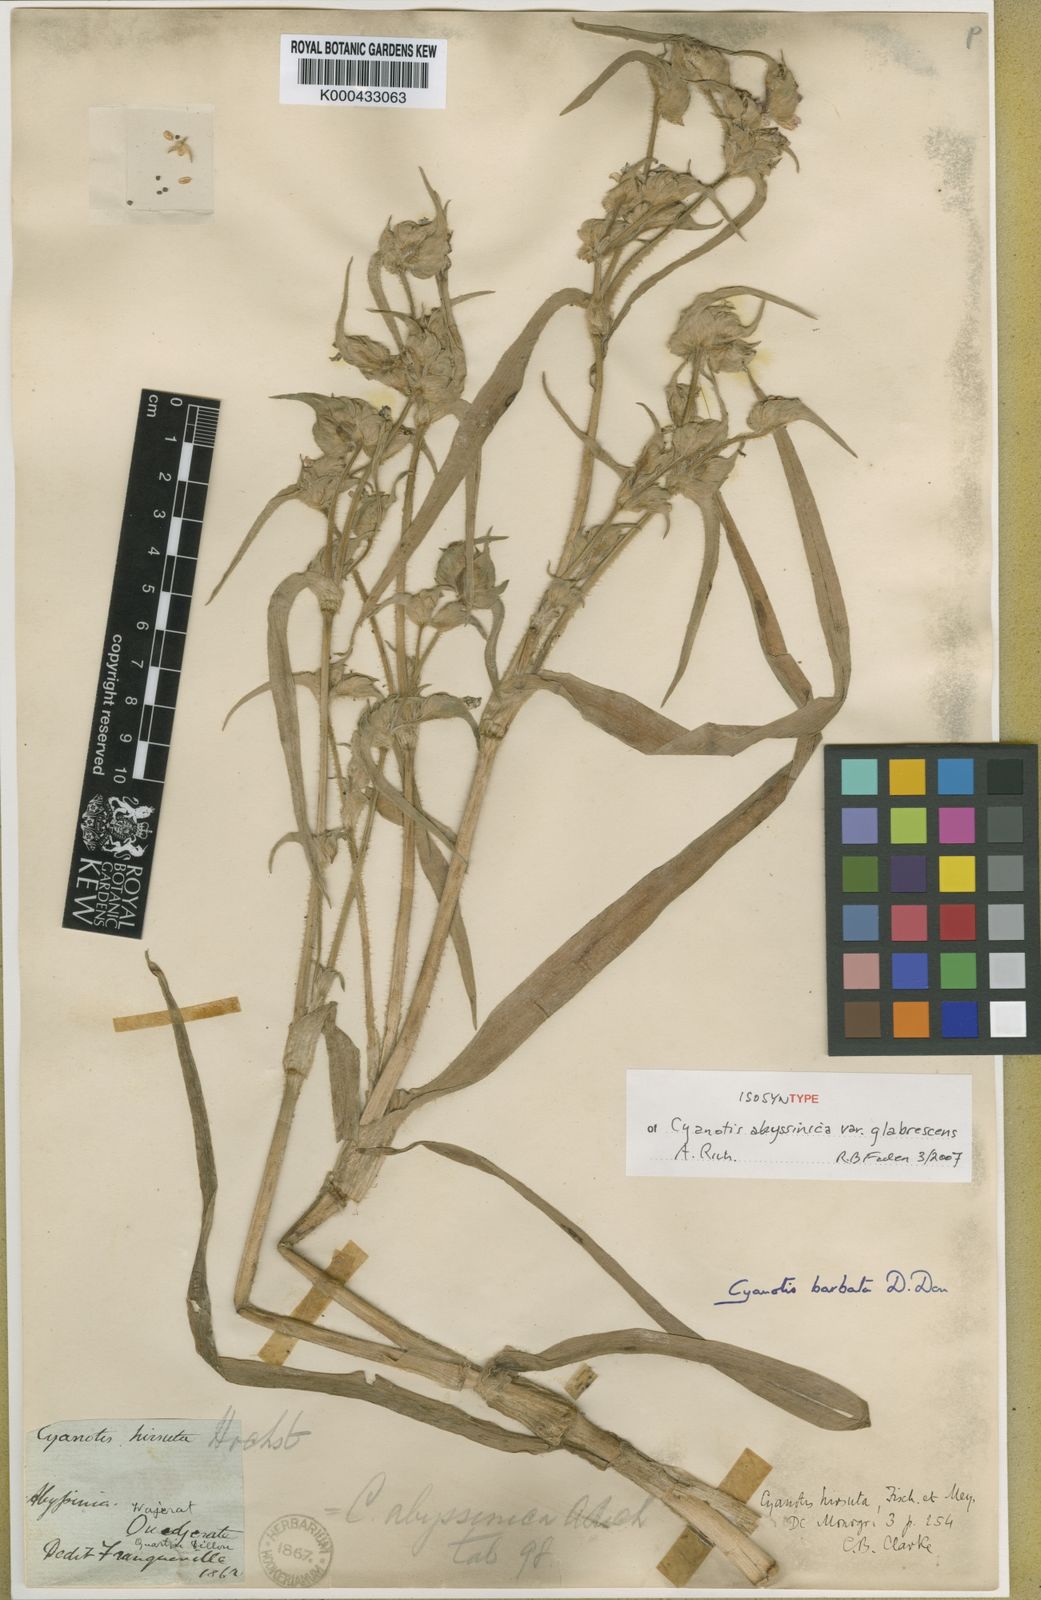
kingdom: Plantae
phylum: Tracheophyta
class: Liliopsida
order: Commelinales
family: Commelinaceae
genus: Cyanotis
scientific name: Cyanotis vaga
